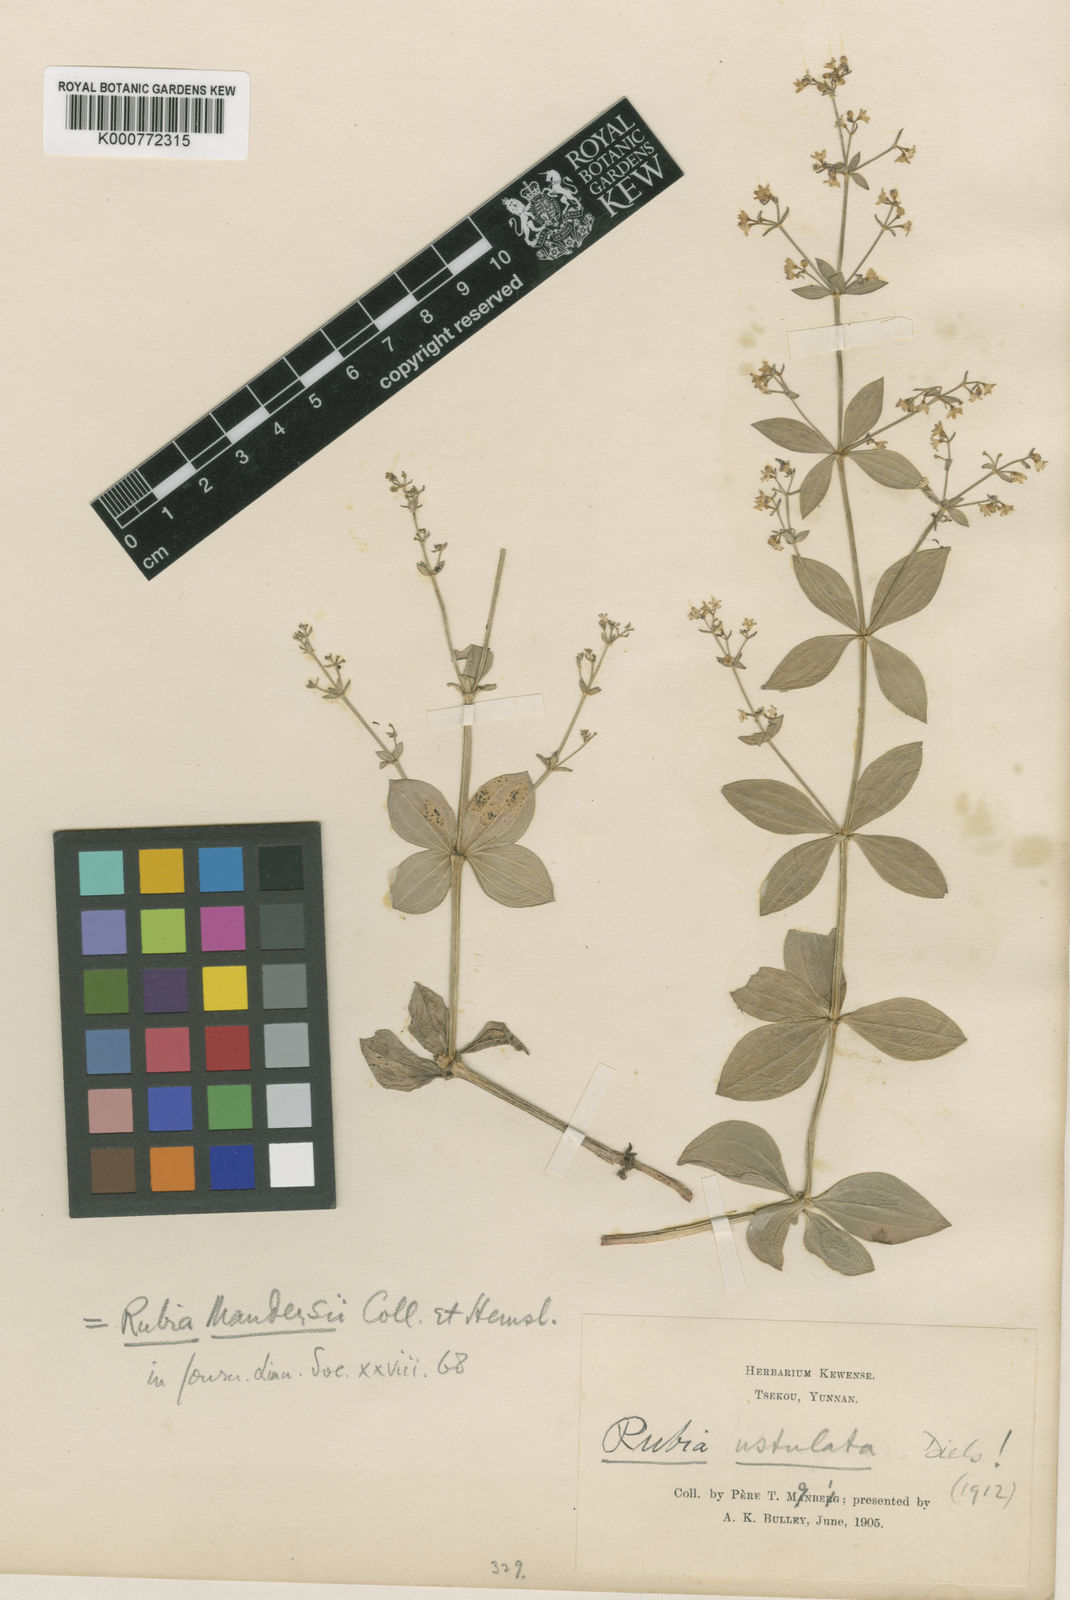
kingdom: Plantae
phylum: Tracheophyta
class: Magnoliopsida
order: Gentianales
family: Rubiaceae
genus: Rubia
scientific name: Rubia mandersii
